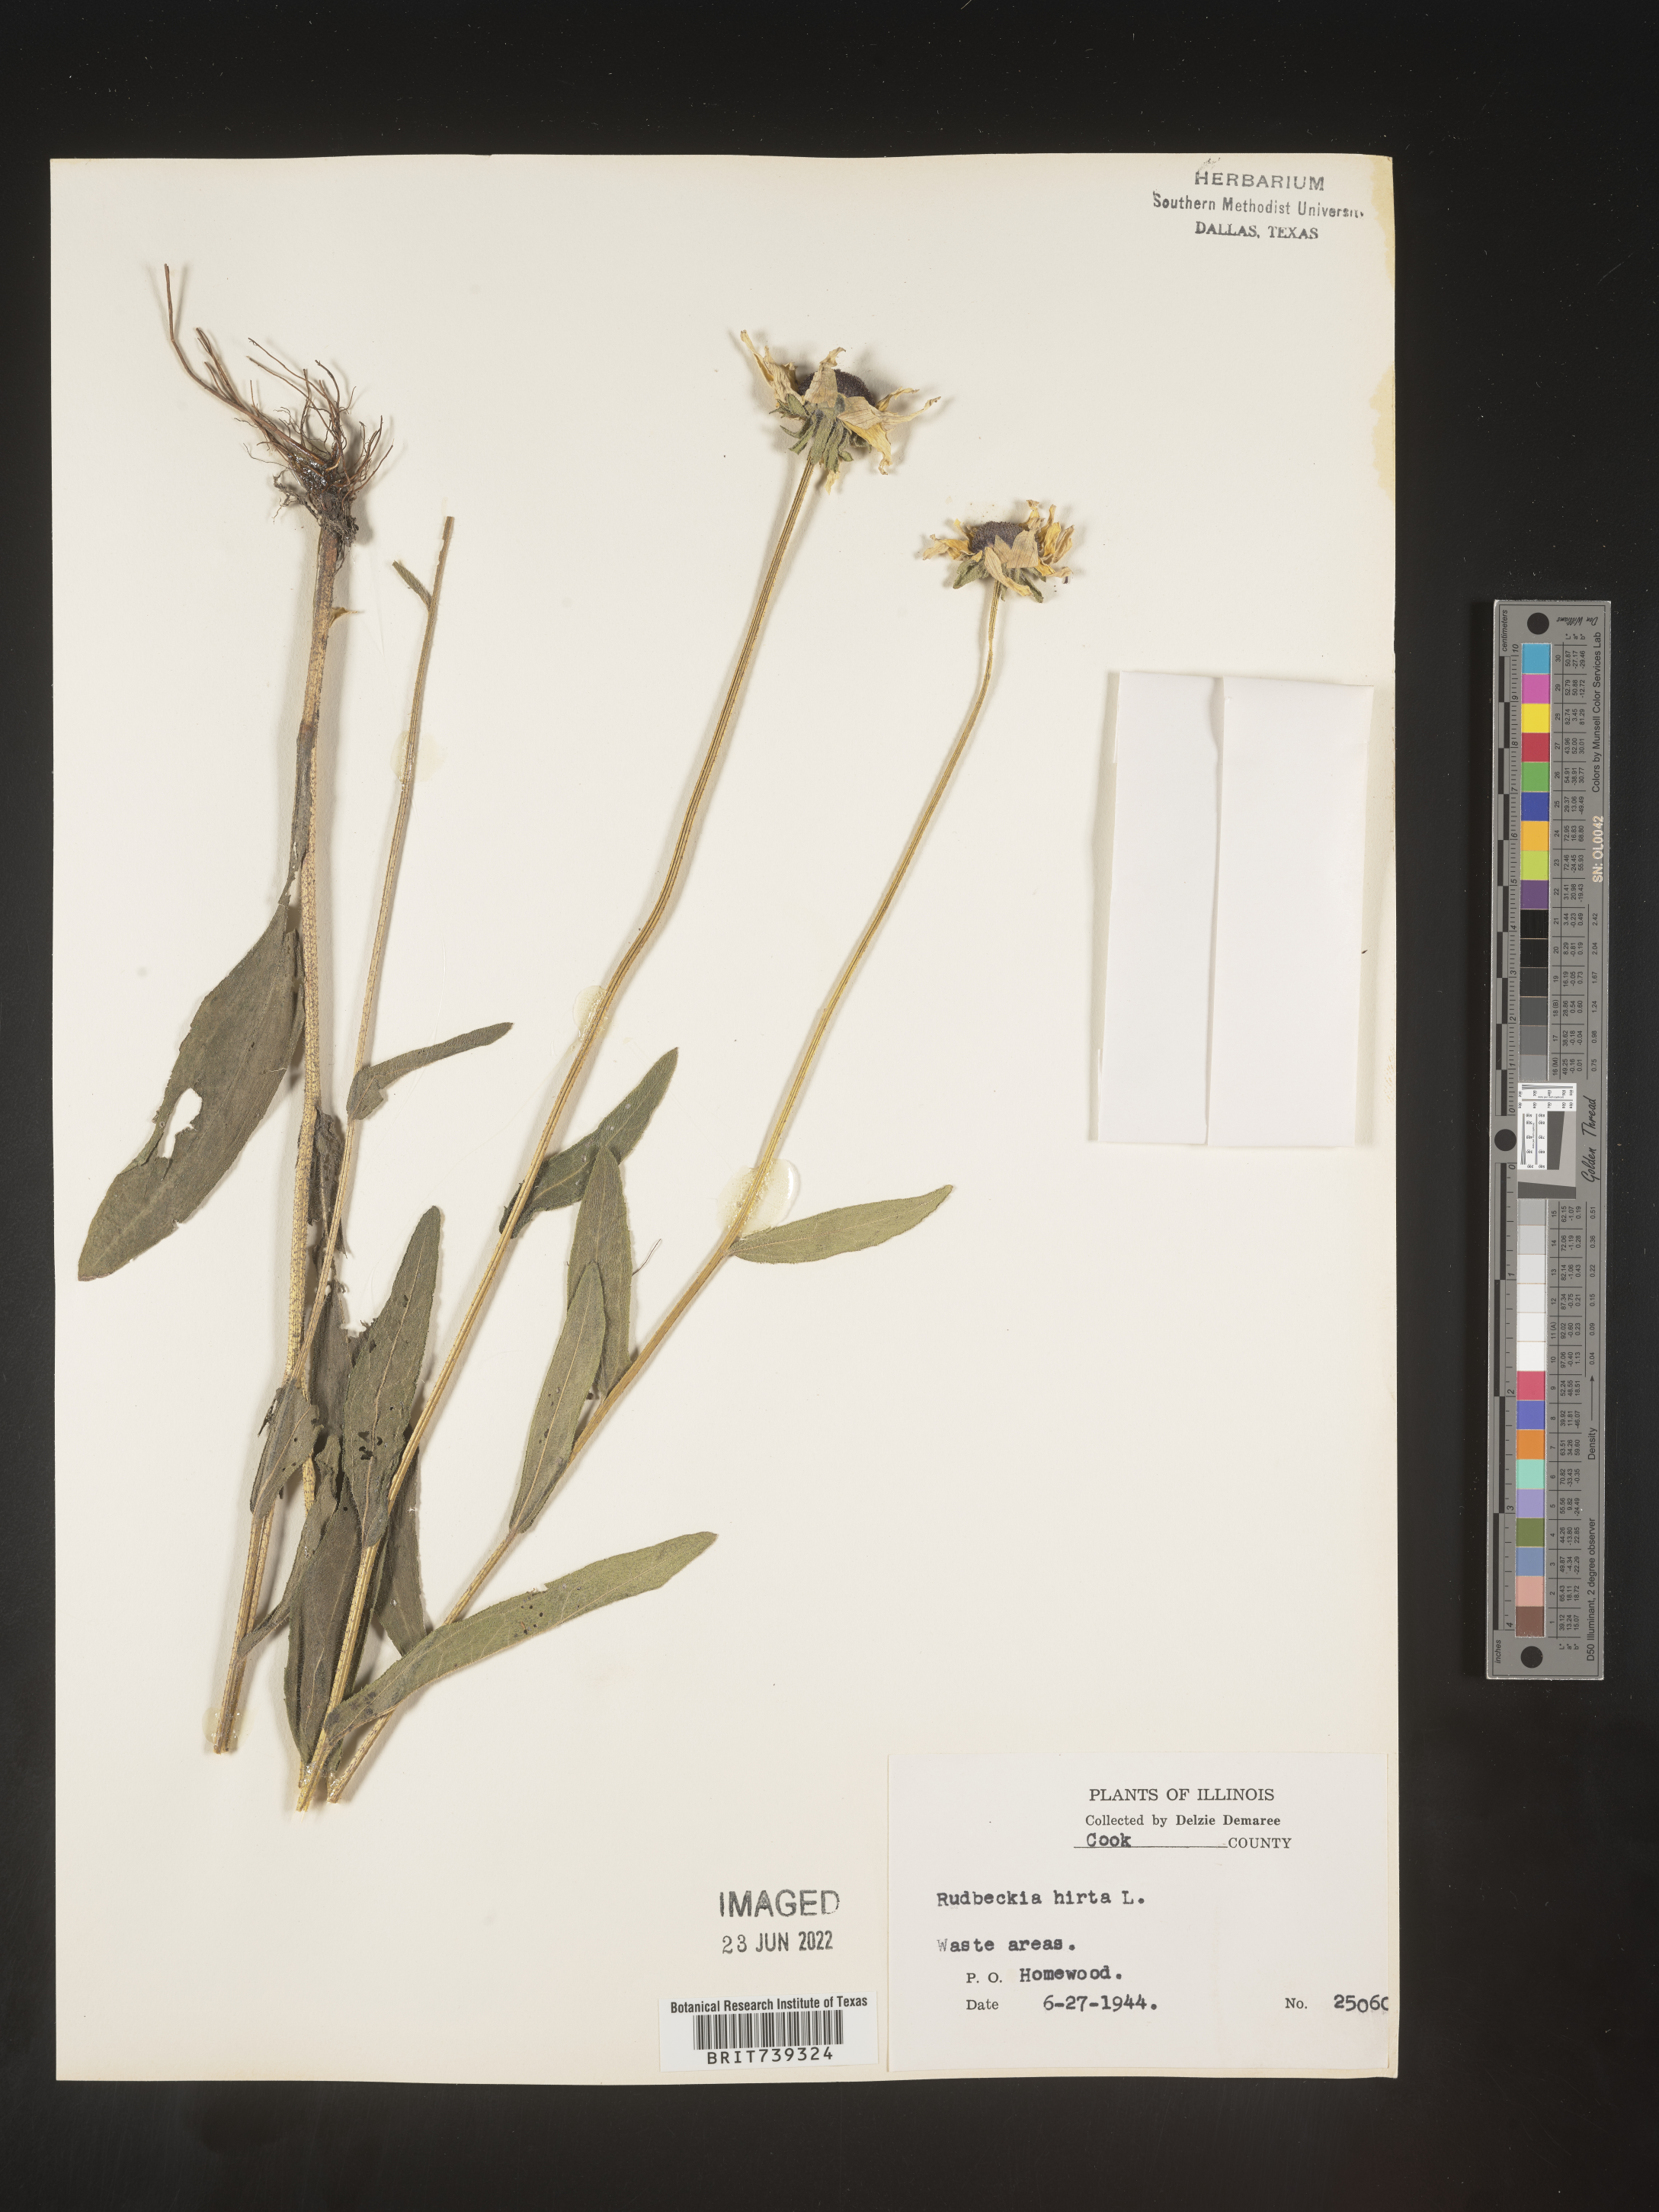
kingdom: Plantae
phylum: Tracheophyta
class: Magnoliopsida
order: Asterales
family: Asteraceae
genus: Rudbeckia
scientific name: Rudbeckia hirta
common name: Black-eyed-susan
